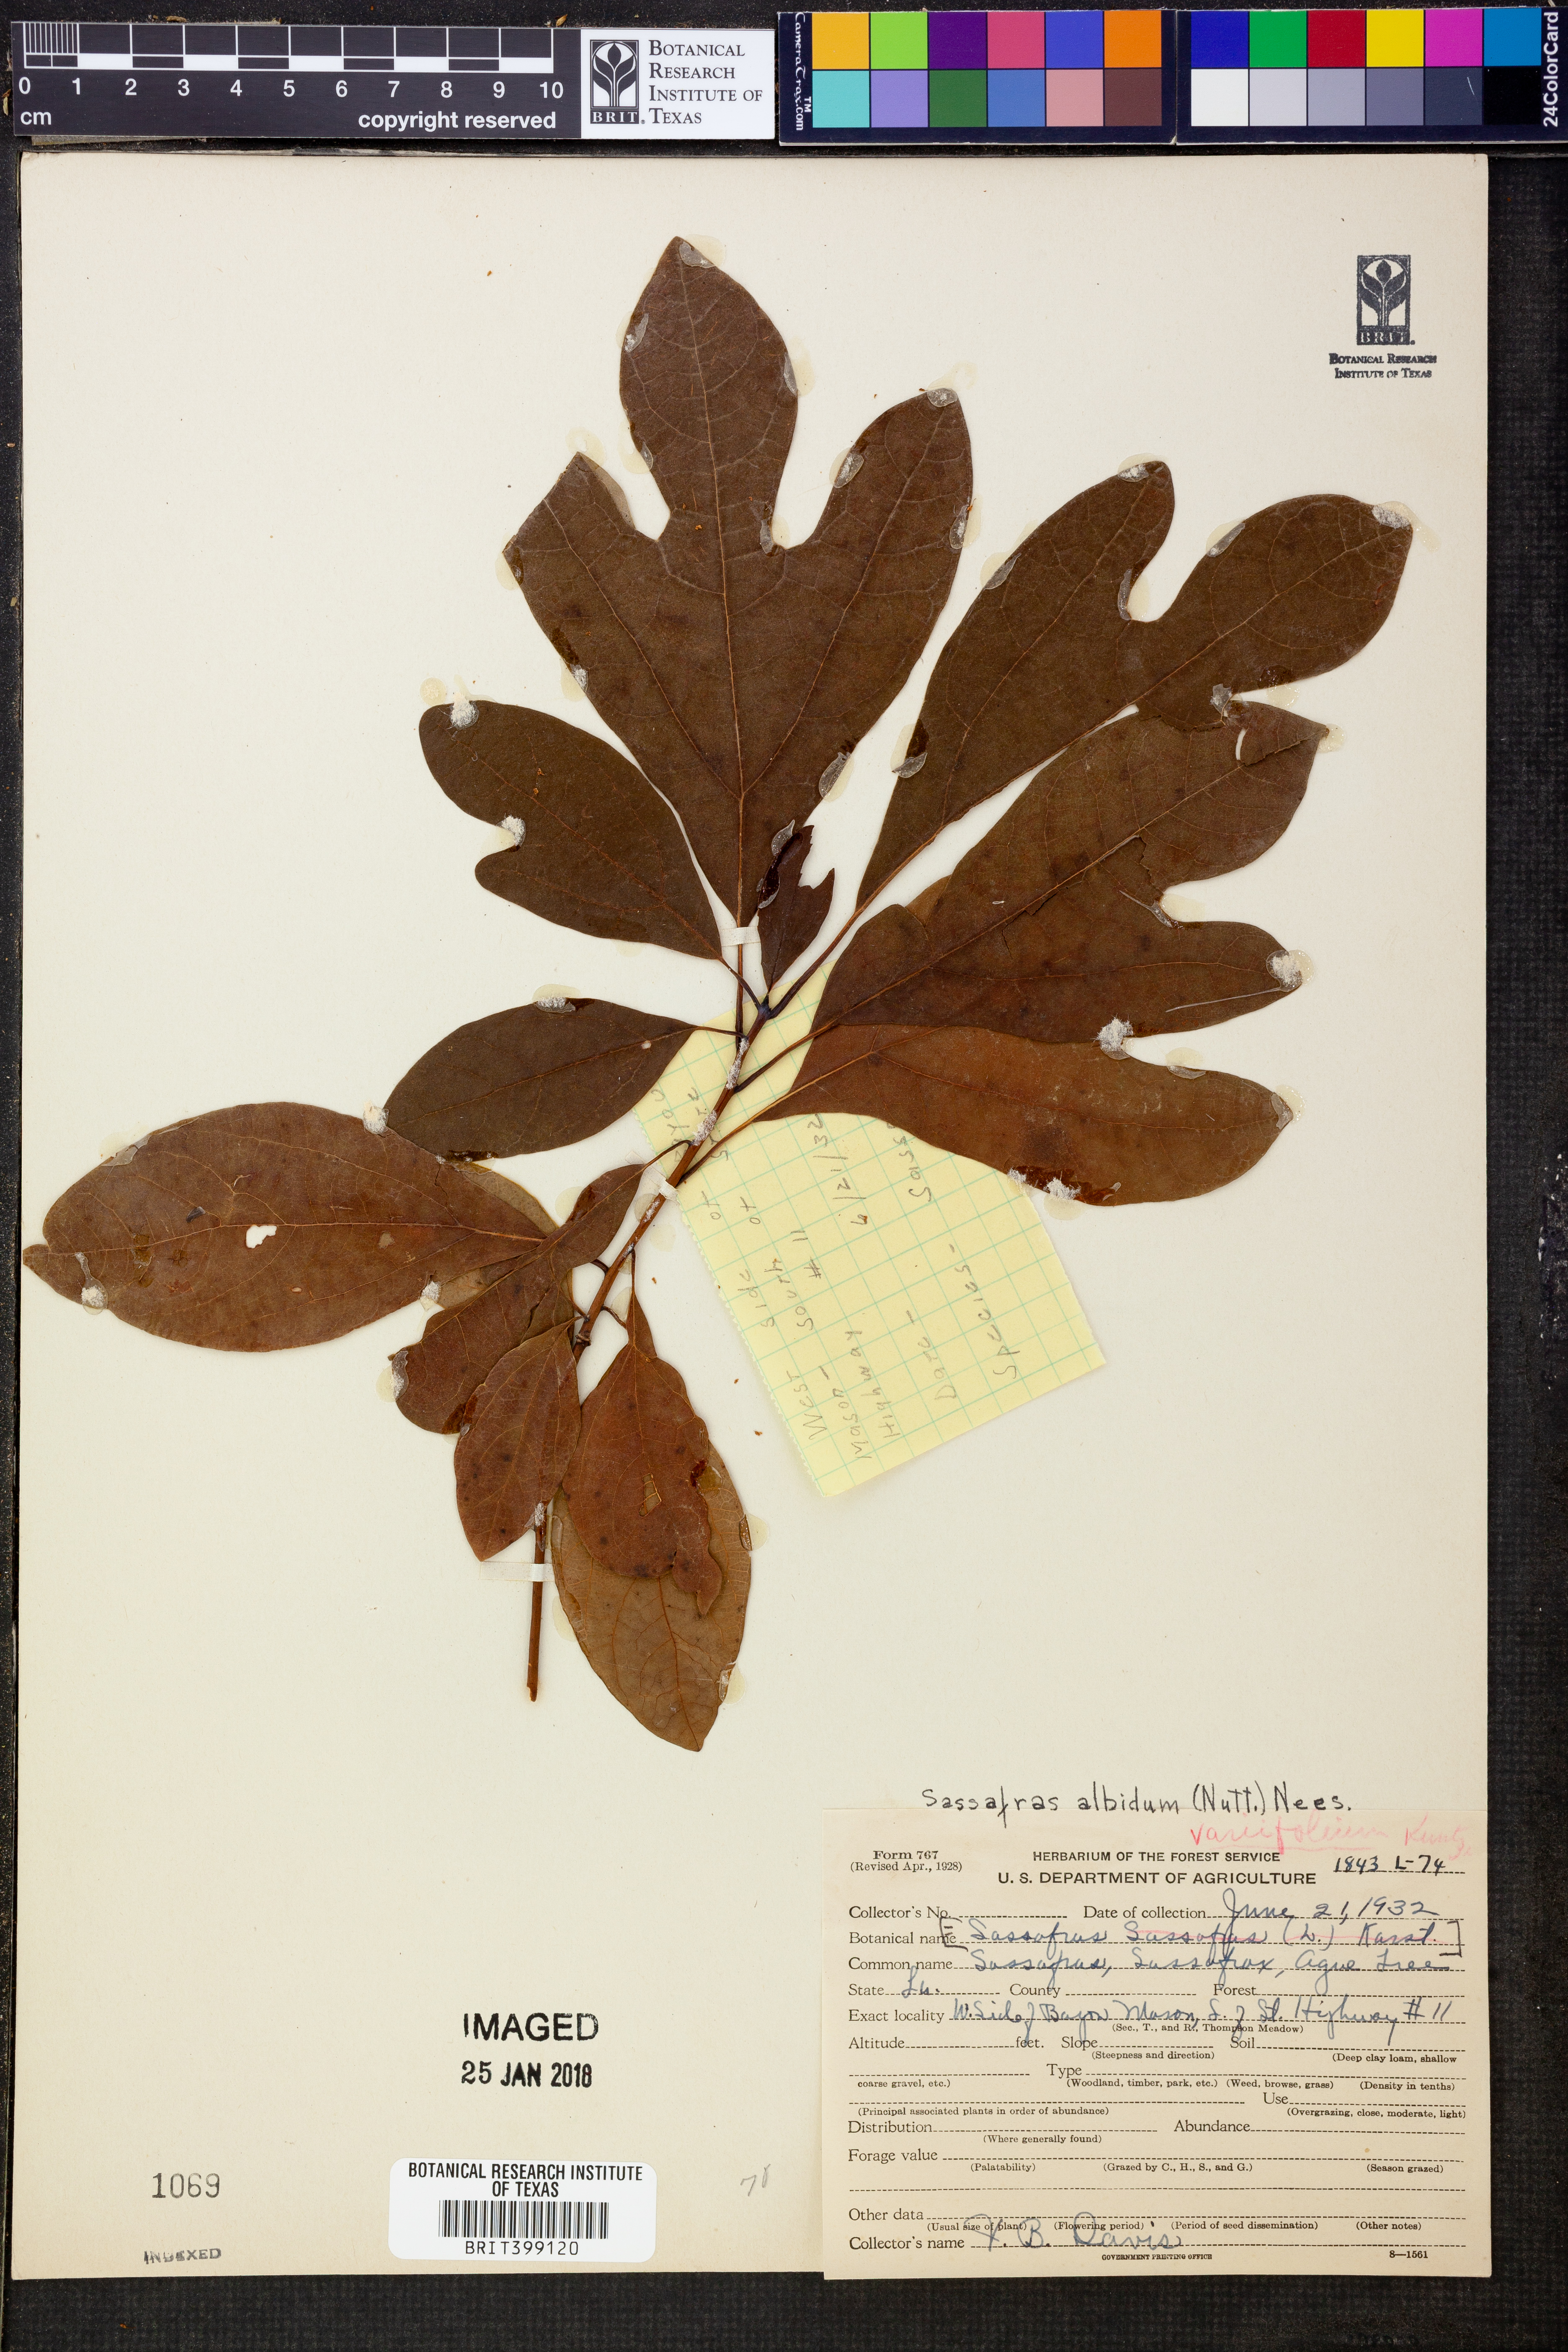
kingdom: Plantae
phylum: Tracheophyta
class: Magnoliopsida
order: Laurales
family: Lauraceae
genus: Sassafras
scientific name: Sassafras albidum
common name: Sassafras
